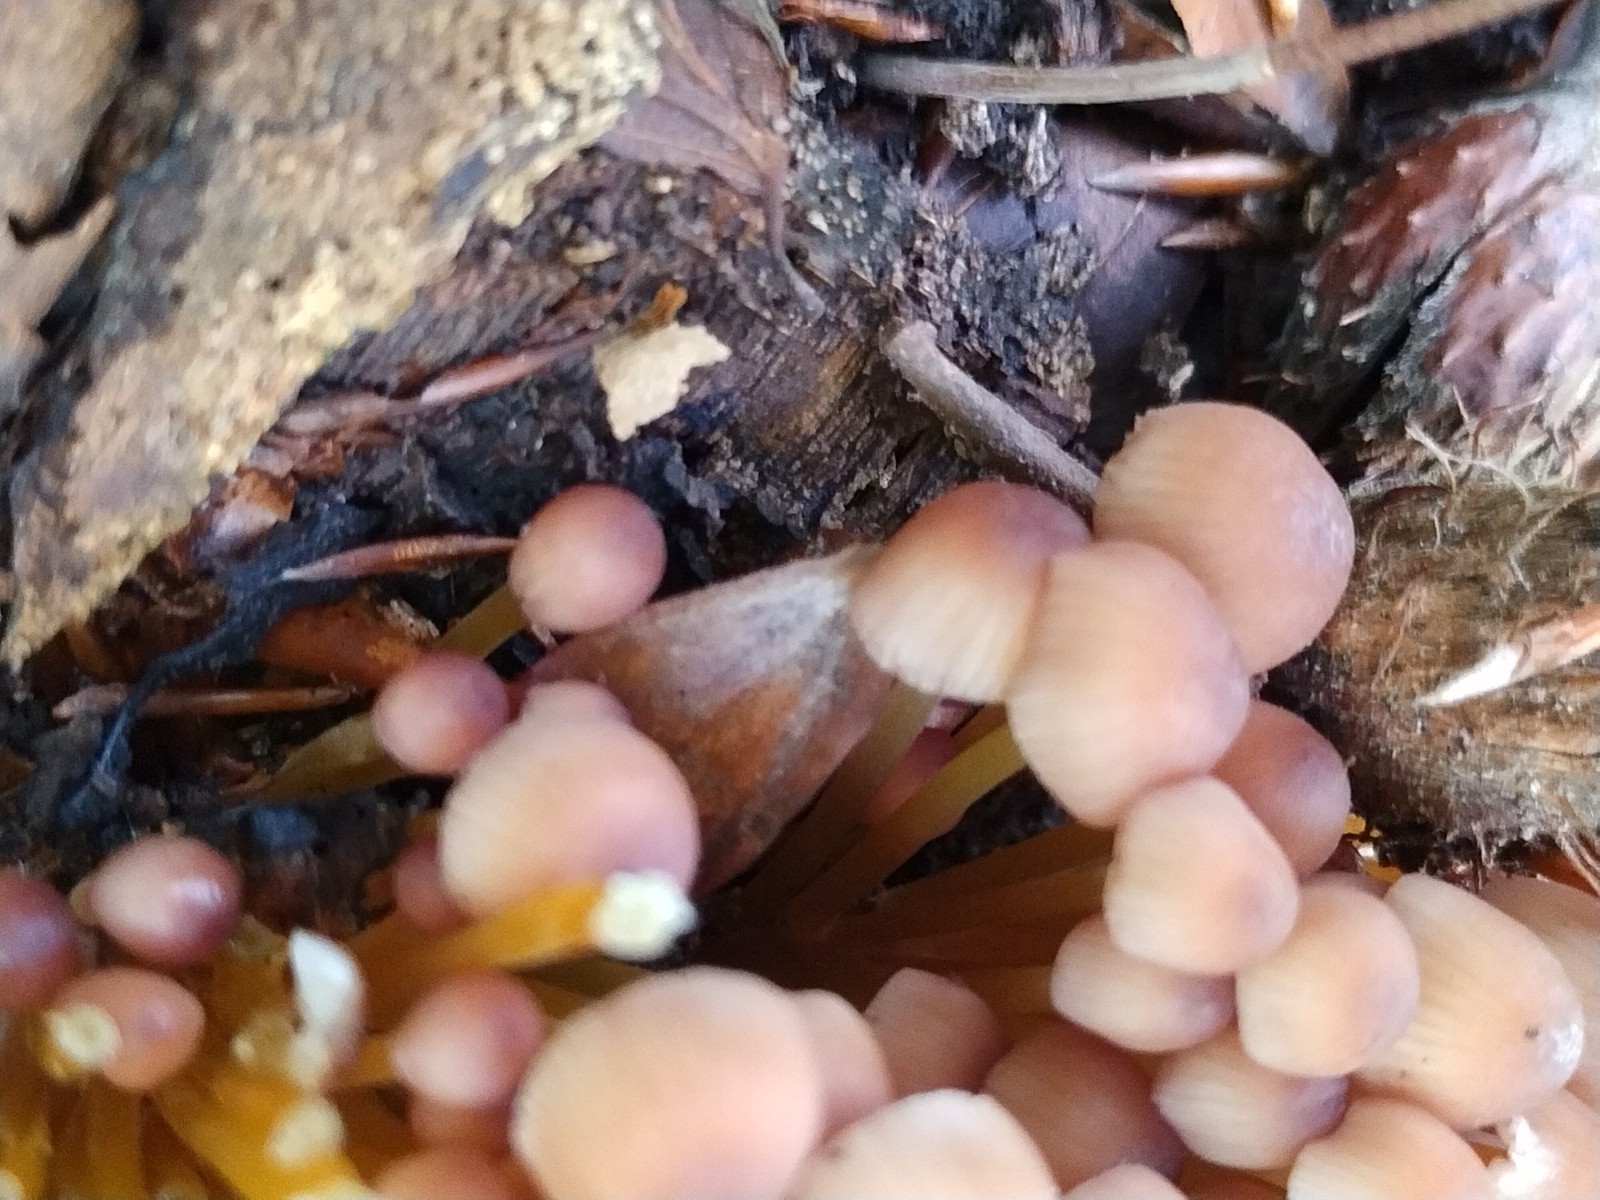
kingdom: Fungi
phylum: Basidiomycota
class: Agaricomycetes
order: Agaricales
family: Mycenaceae
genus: Mycena
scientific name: Mycena renati
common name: smuk huesvamp
